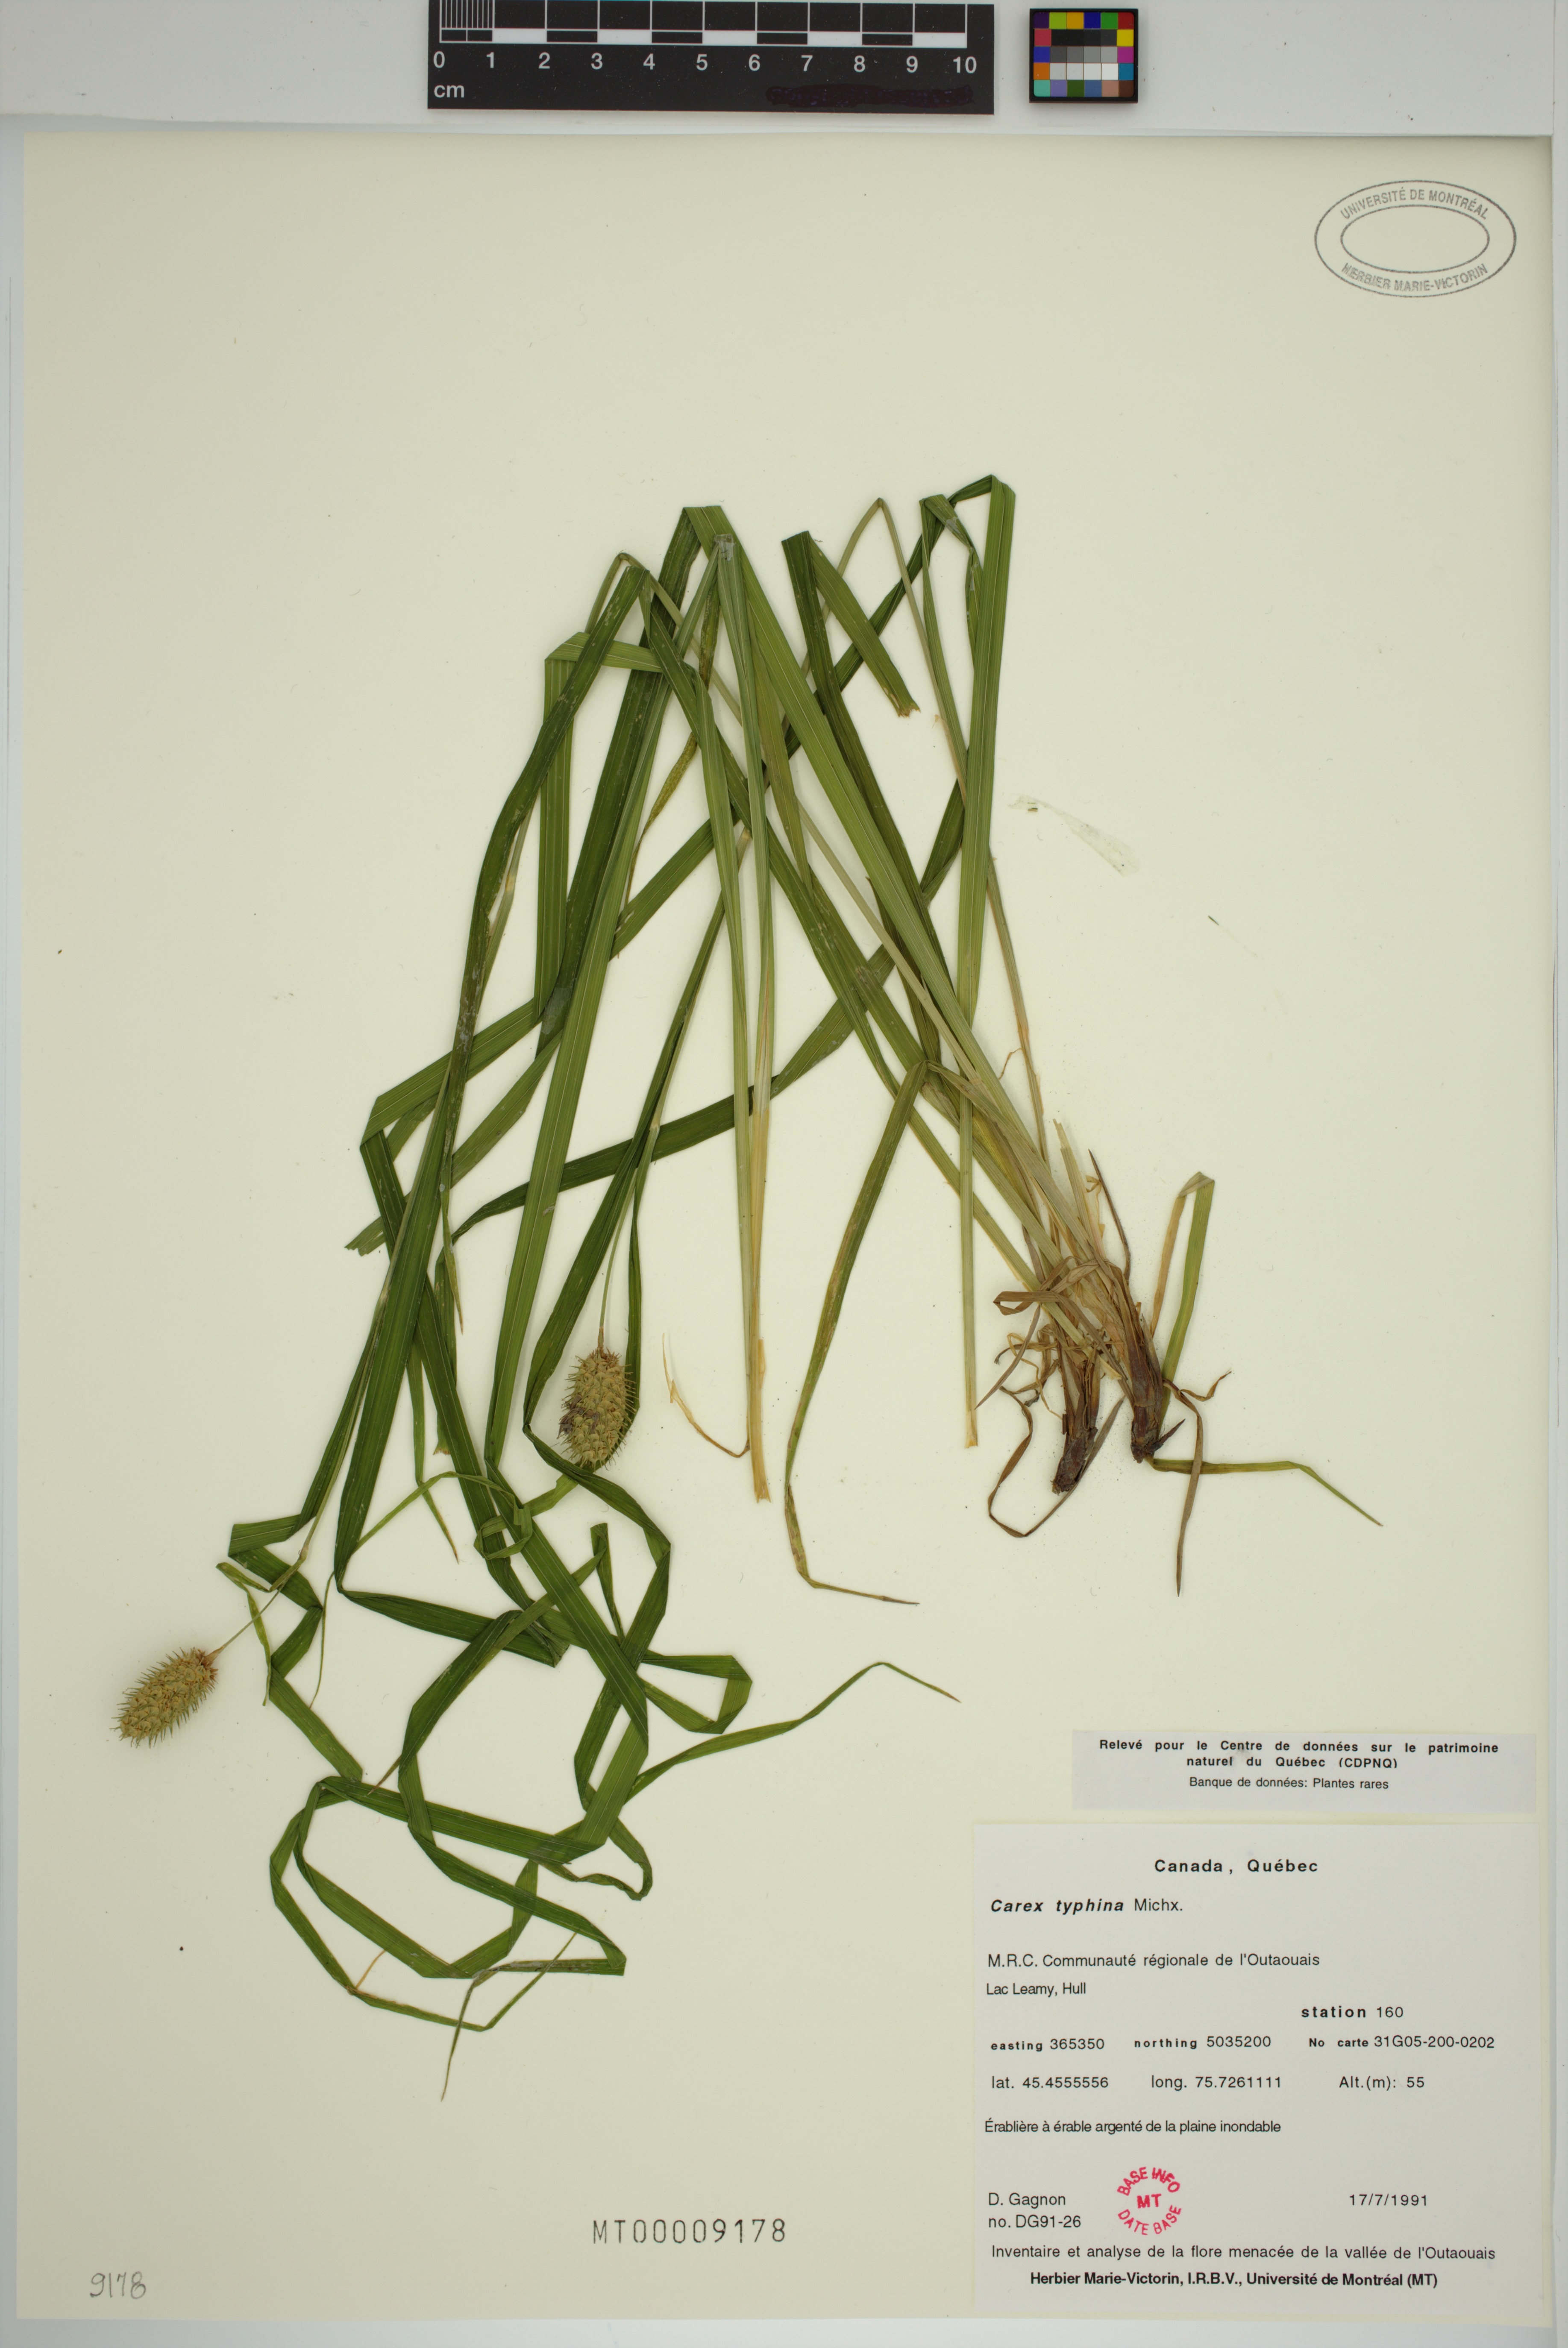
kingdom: Plantae
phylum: Tracheophyta
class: Liliopsida
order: Poales
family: Cyperaceae
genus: Carex
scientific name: Carex typhina
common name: Cattail sedge
